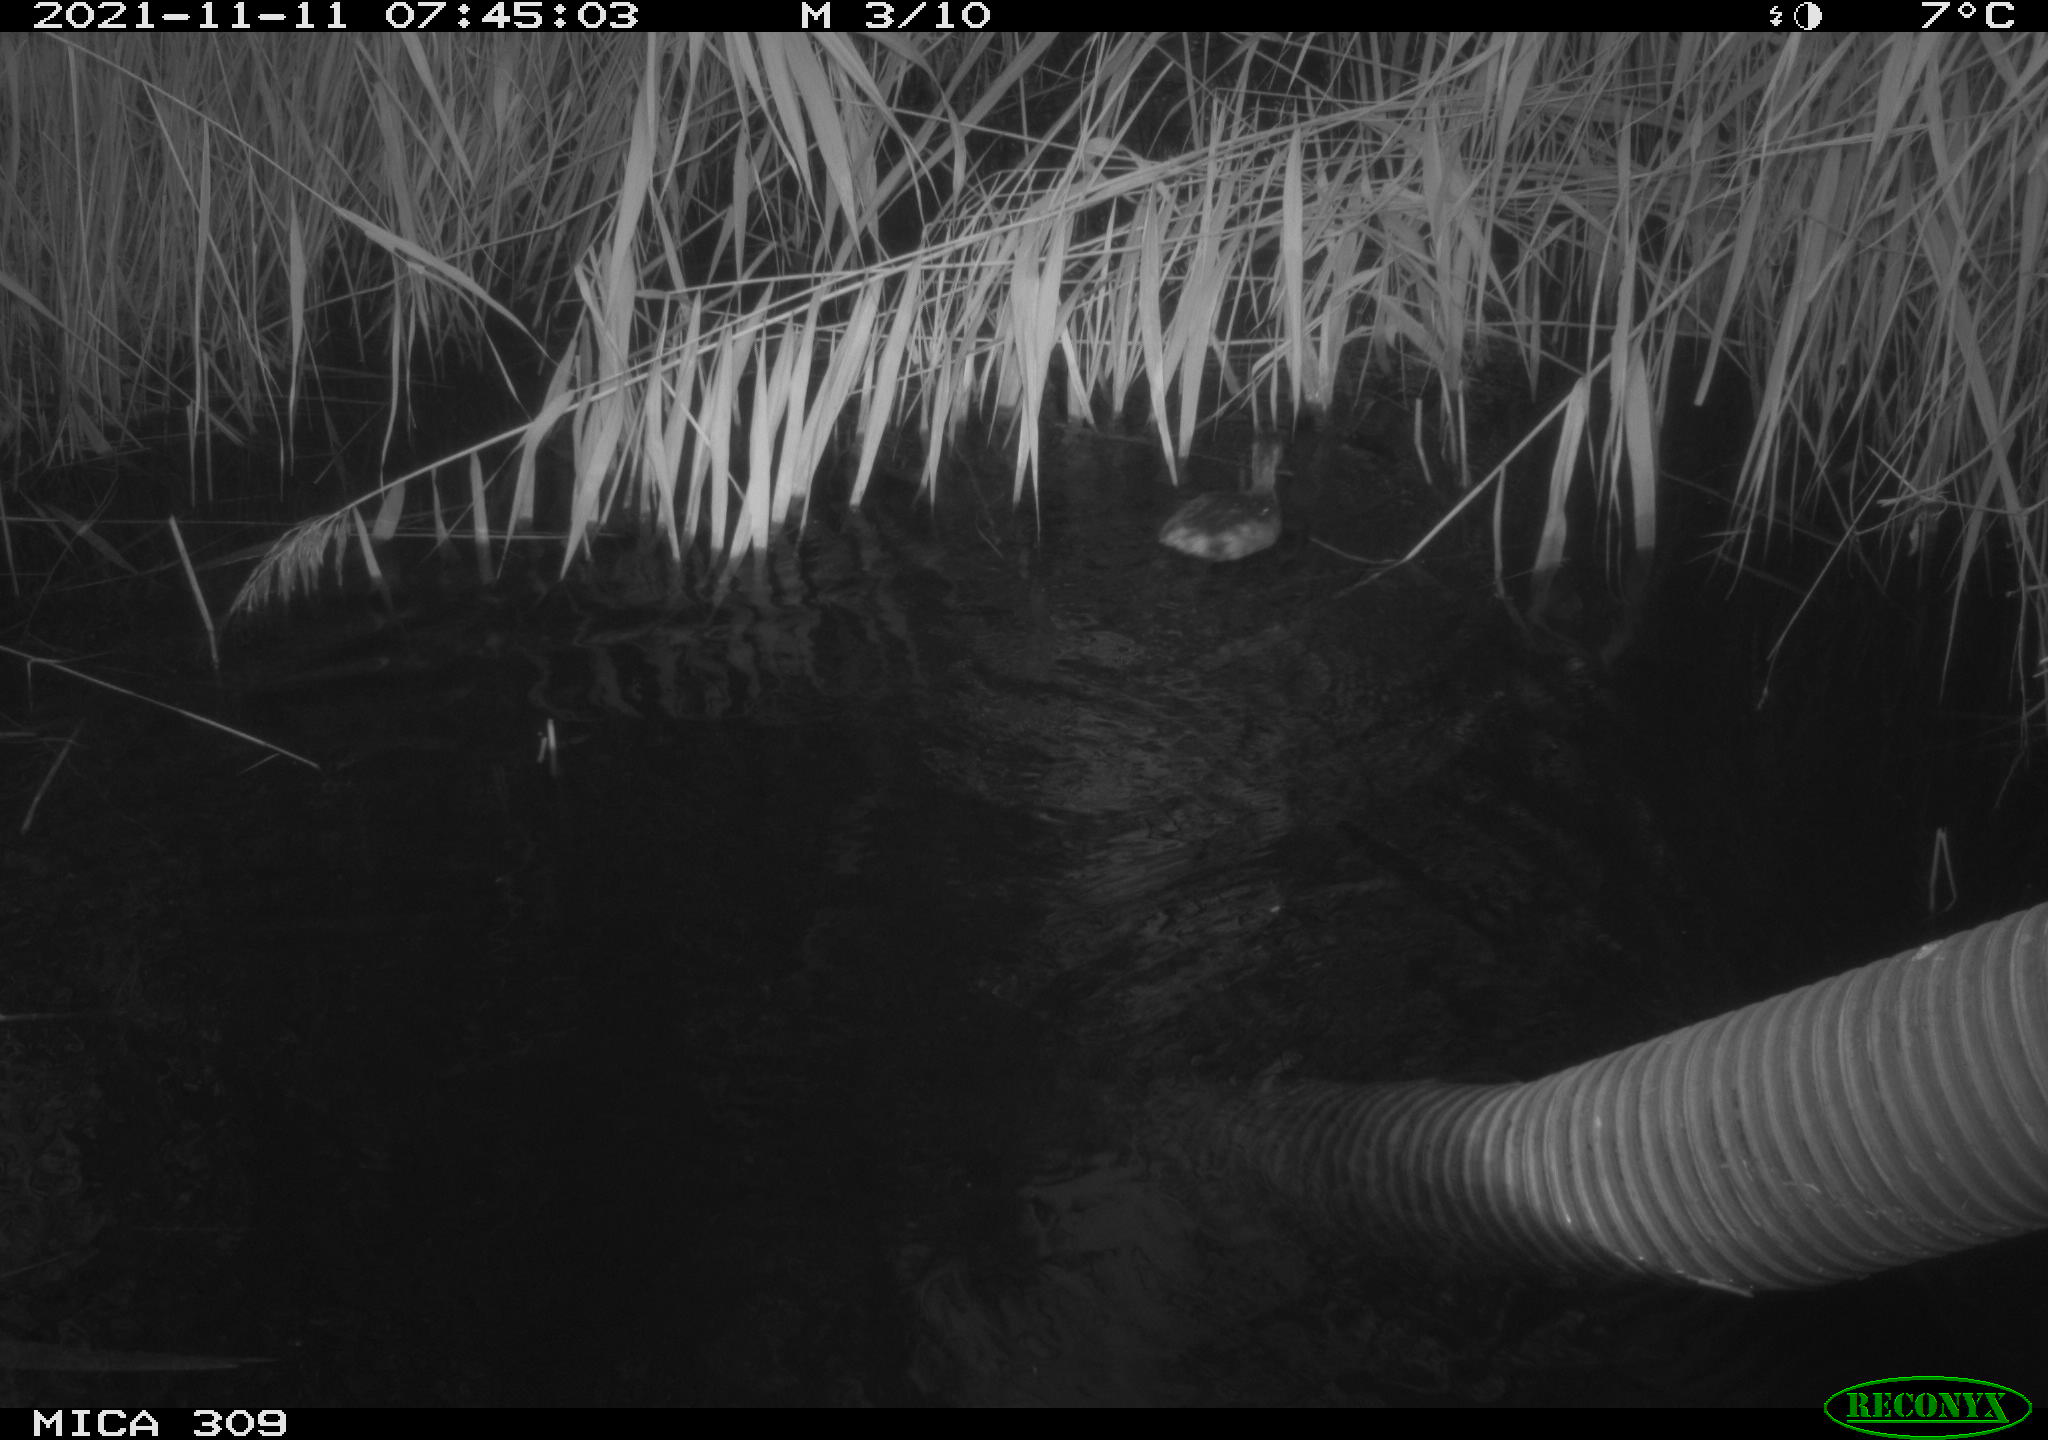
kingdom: Animalia
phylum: Chordata
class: Aves
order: Gruiformes
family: Rallidae
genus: Rallus
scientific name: Rallus aquaticus
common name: Water rail
